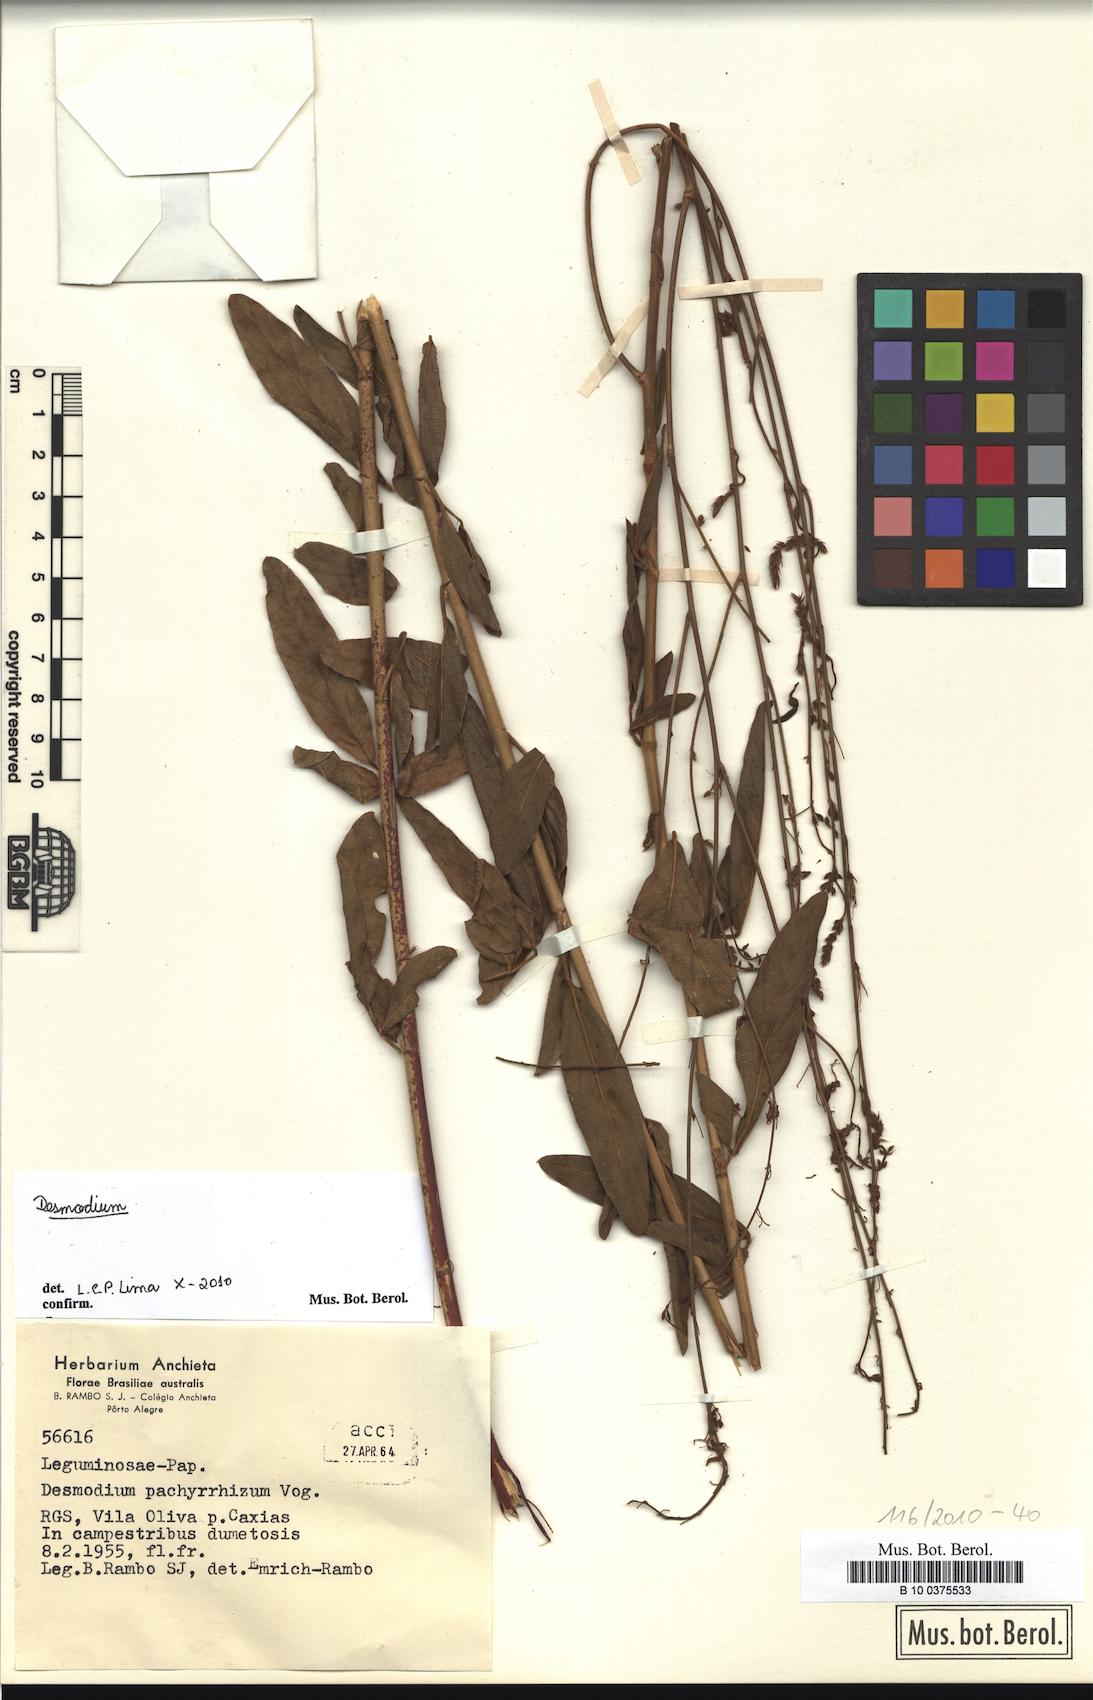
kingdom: Plantae
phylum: Tracheophyta
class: Magnoliopsida
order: Fabales
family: Fabaceae
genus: Desmodium
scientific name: Desmodium
